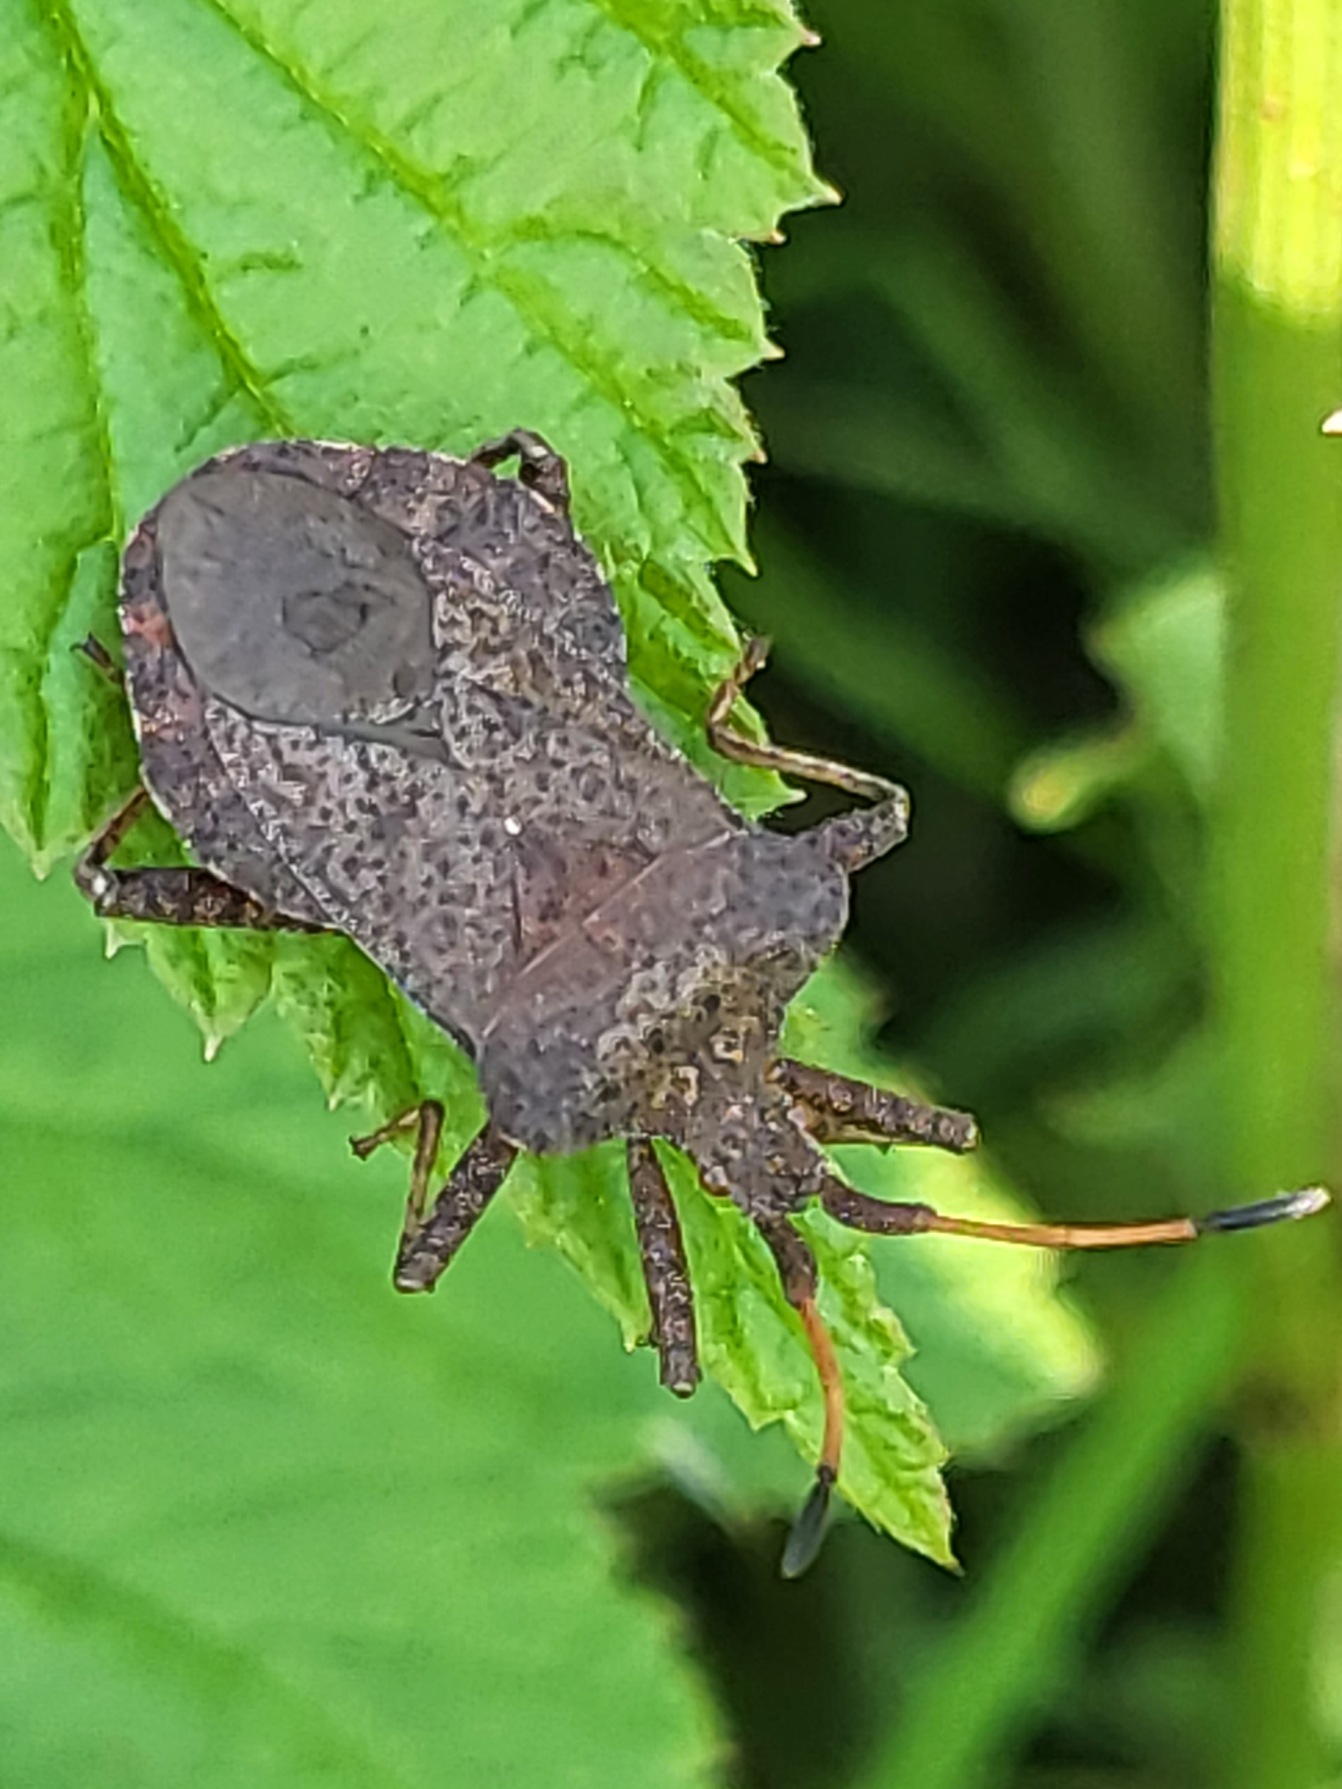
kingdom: Animalia
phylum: Arthropoda
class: Insecta
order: Hemiptera
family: Coreidae
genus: Coreus
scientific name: Coreus marginatus
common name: Skræppetæge
